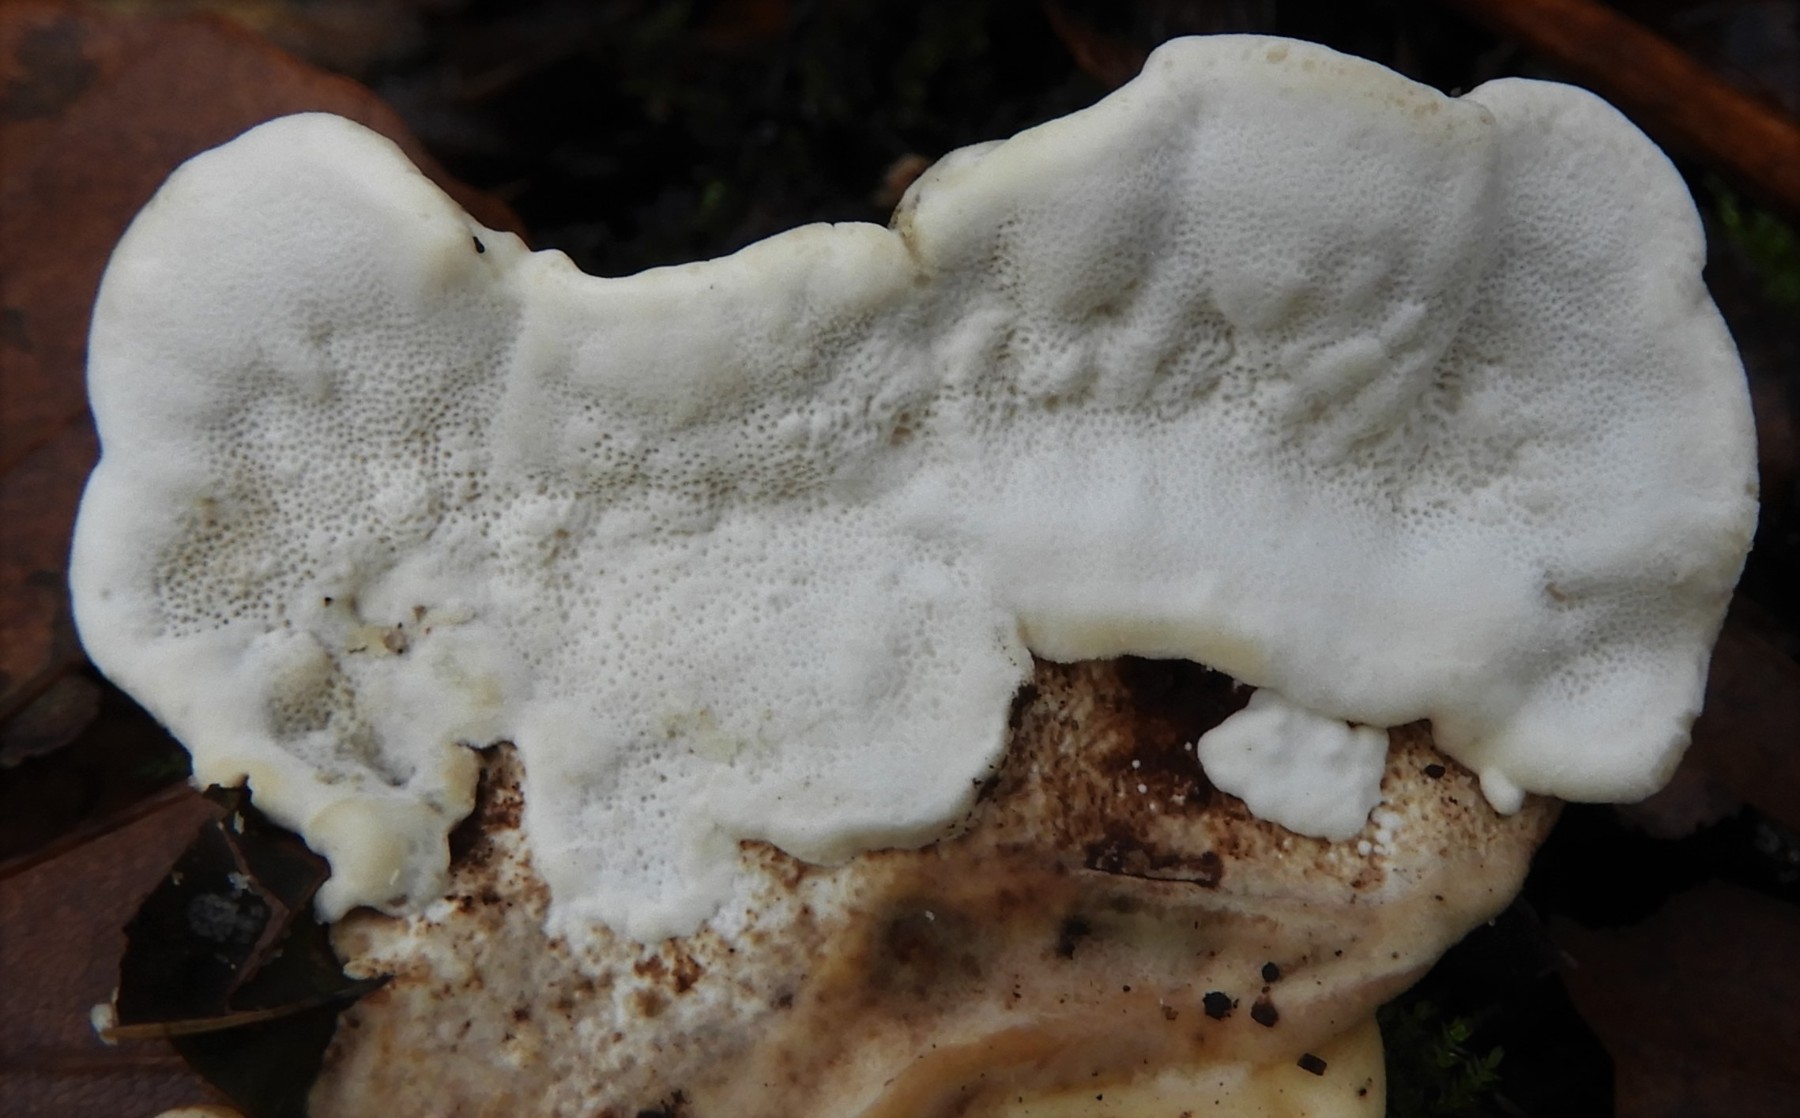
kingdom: Fungi
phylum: Basidiomycota
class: Agaricomycetes
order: Polyporales
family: Polyporaceae
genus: Trametes
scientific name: Trametes versicolor
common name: broget læderporesvamp
